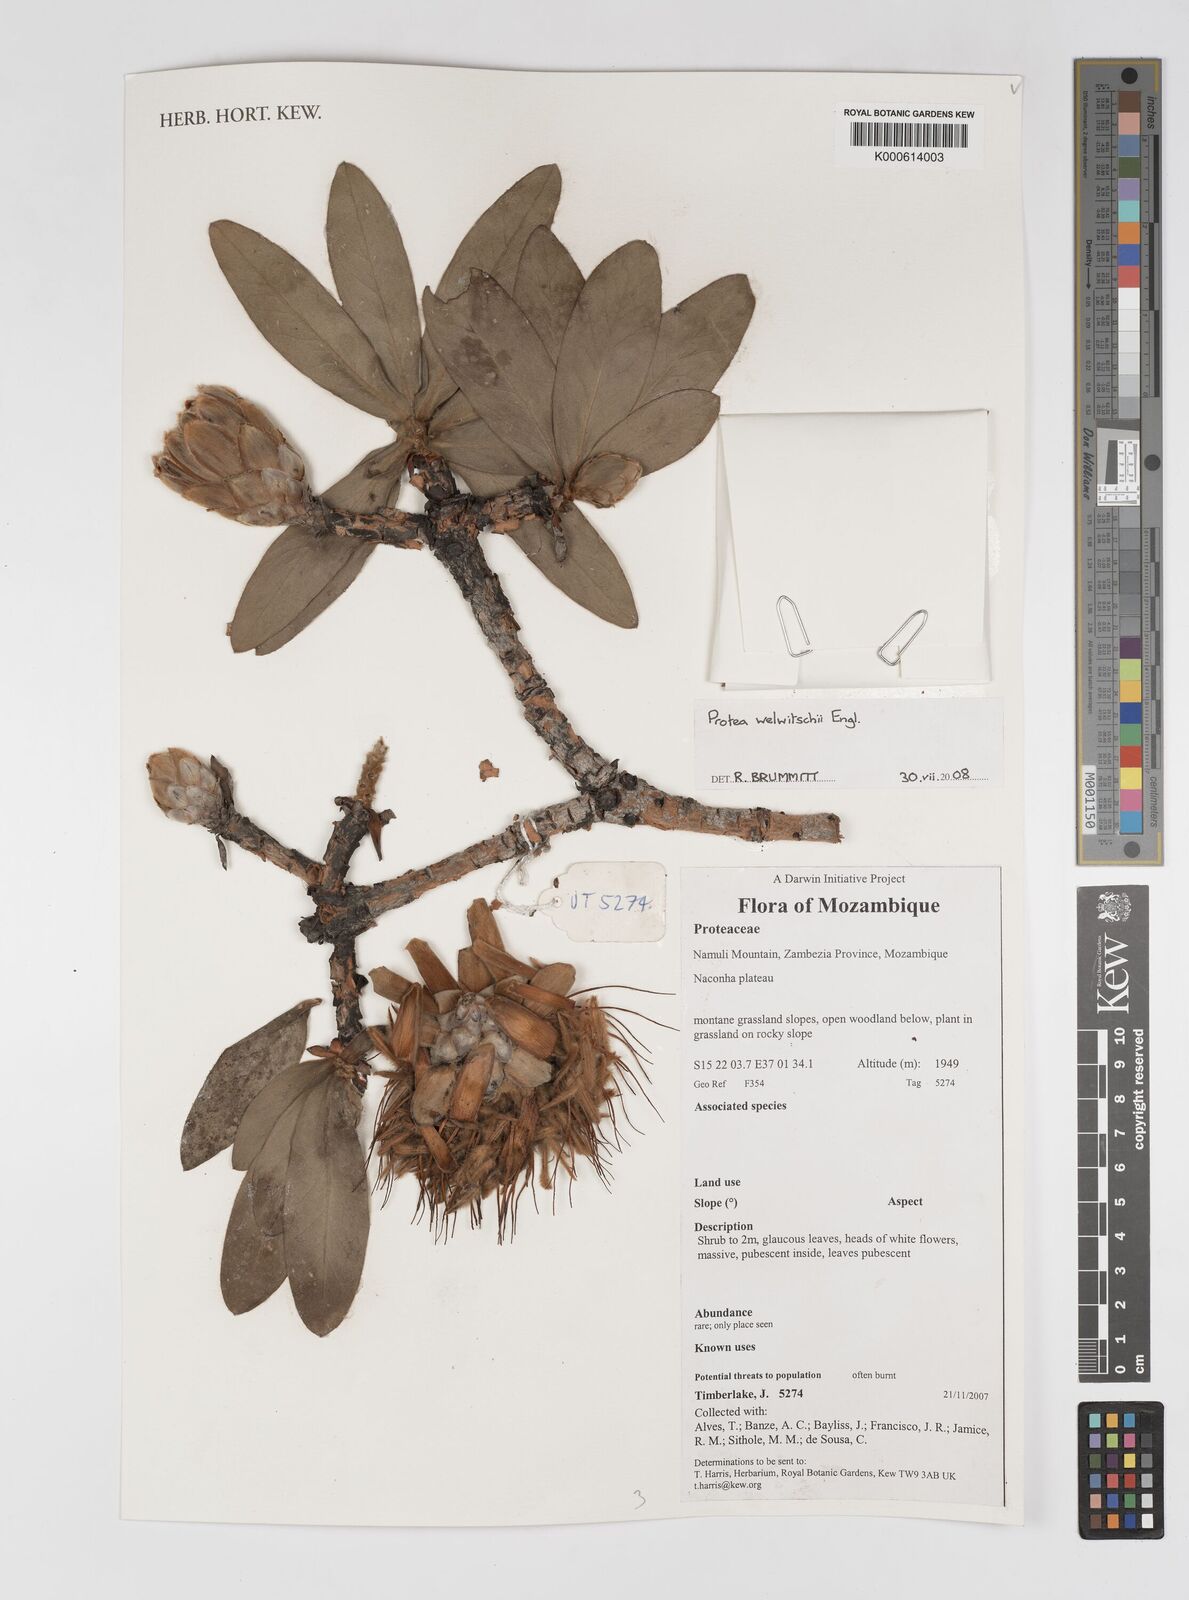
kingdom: Plantae
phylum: Tracheophyta
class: Magnoliopsida
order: Proteales
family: Proteaceae
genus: Protea
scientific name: Protea welwitschii
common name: Cluster-head protea
